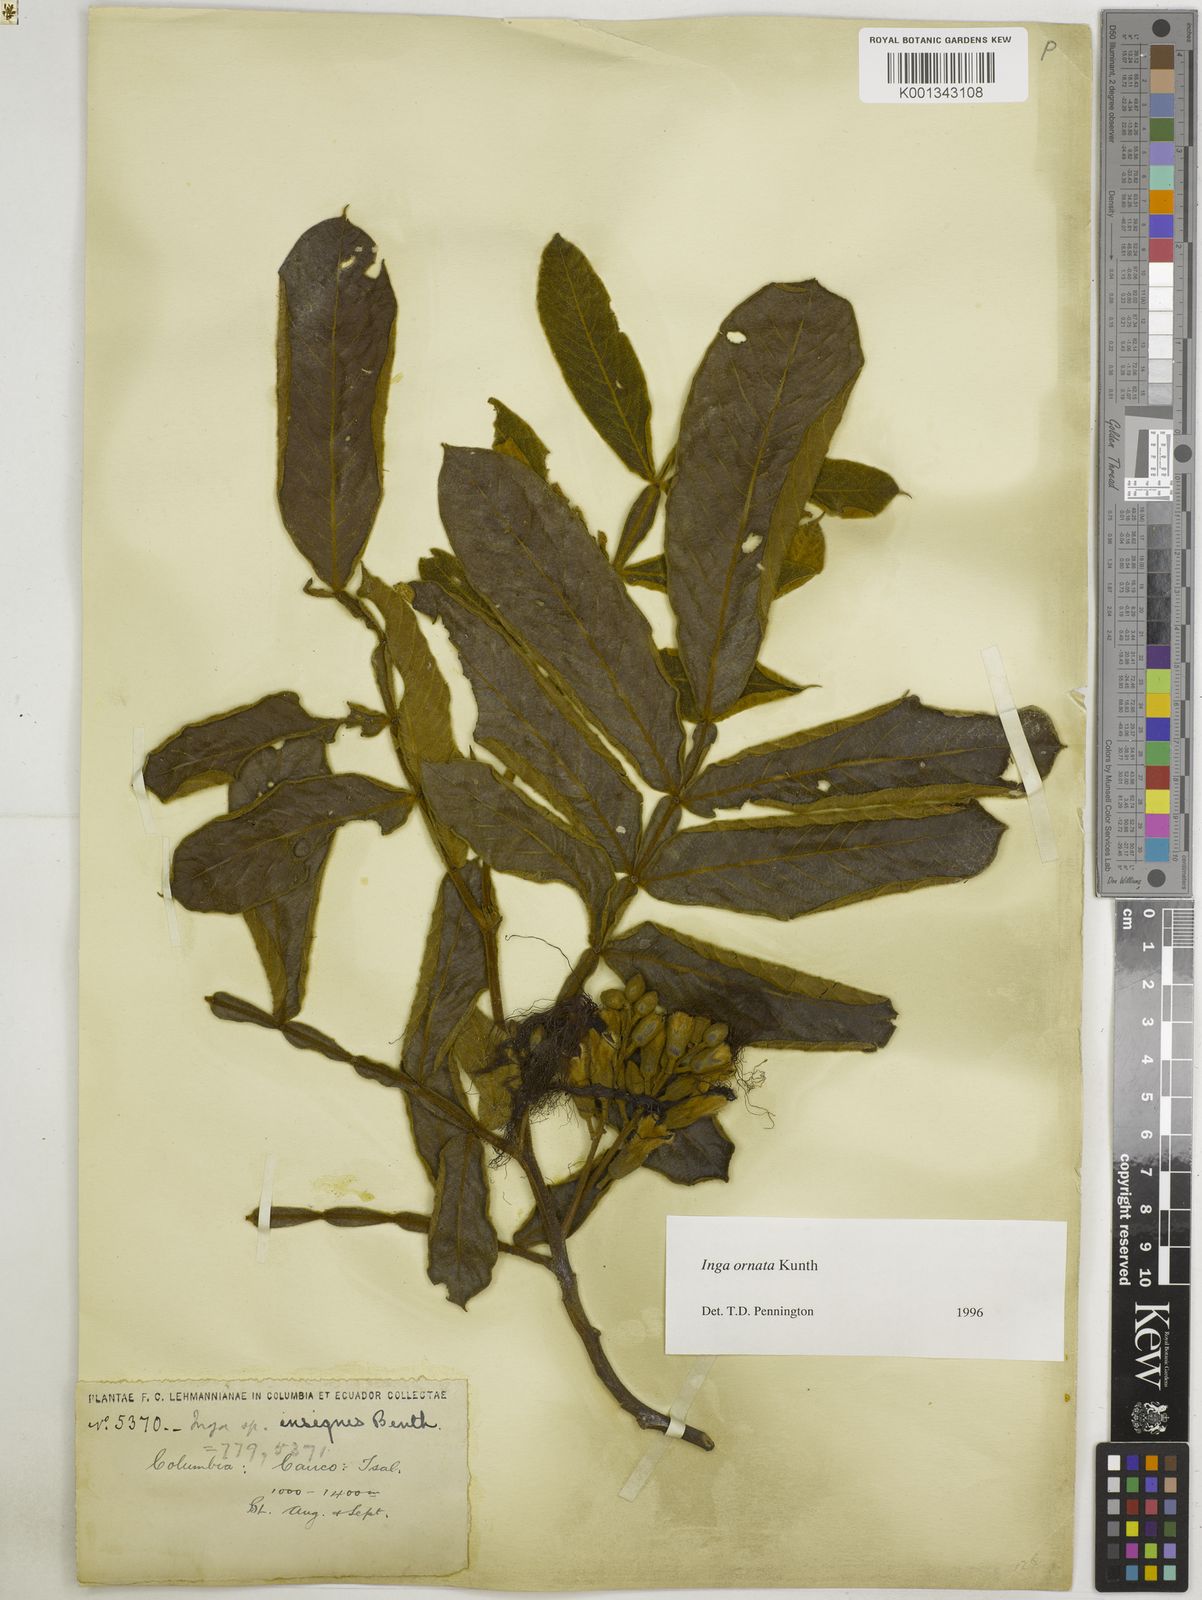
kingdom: Plantae
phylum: Tracheophyta
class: Magnoliopsida
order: Fabales
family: Fabaceae
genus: Inga
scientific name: Inga ornata
